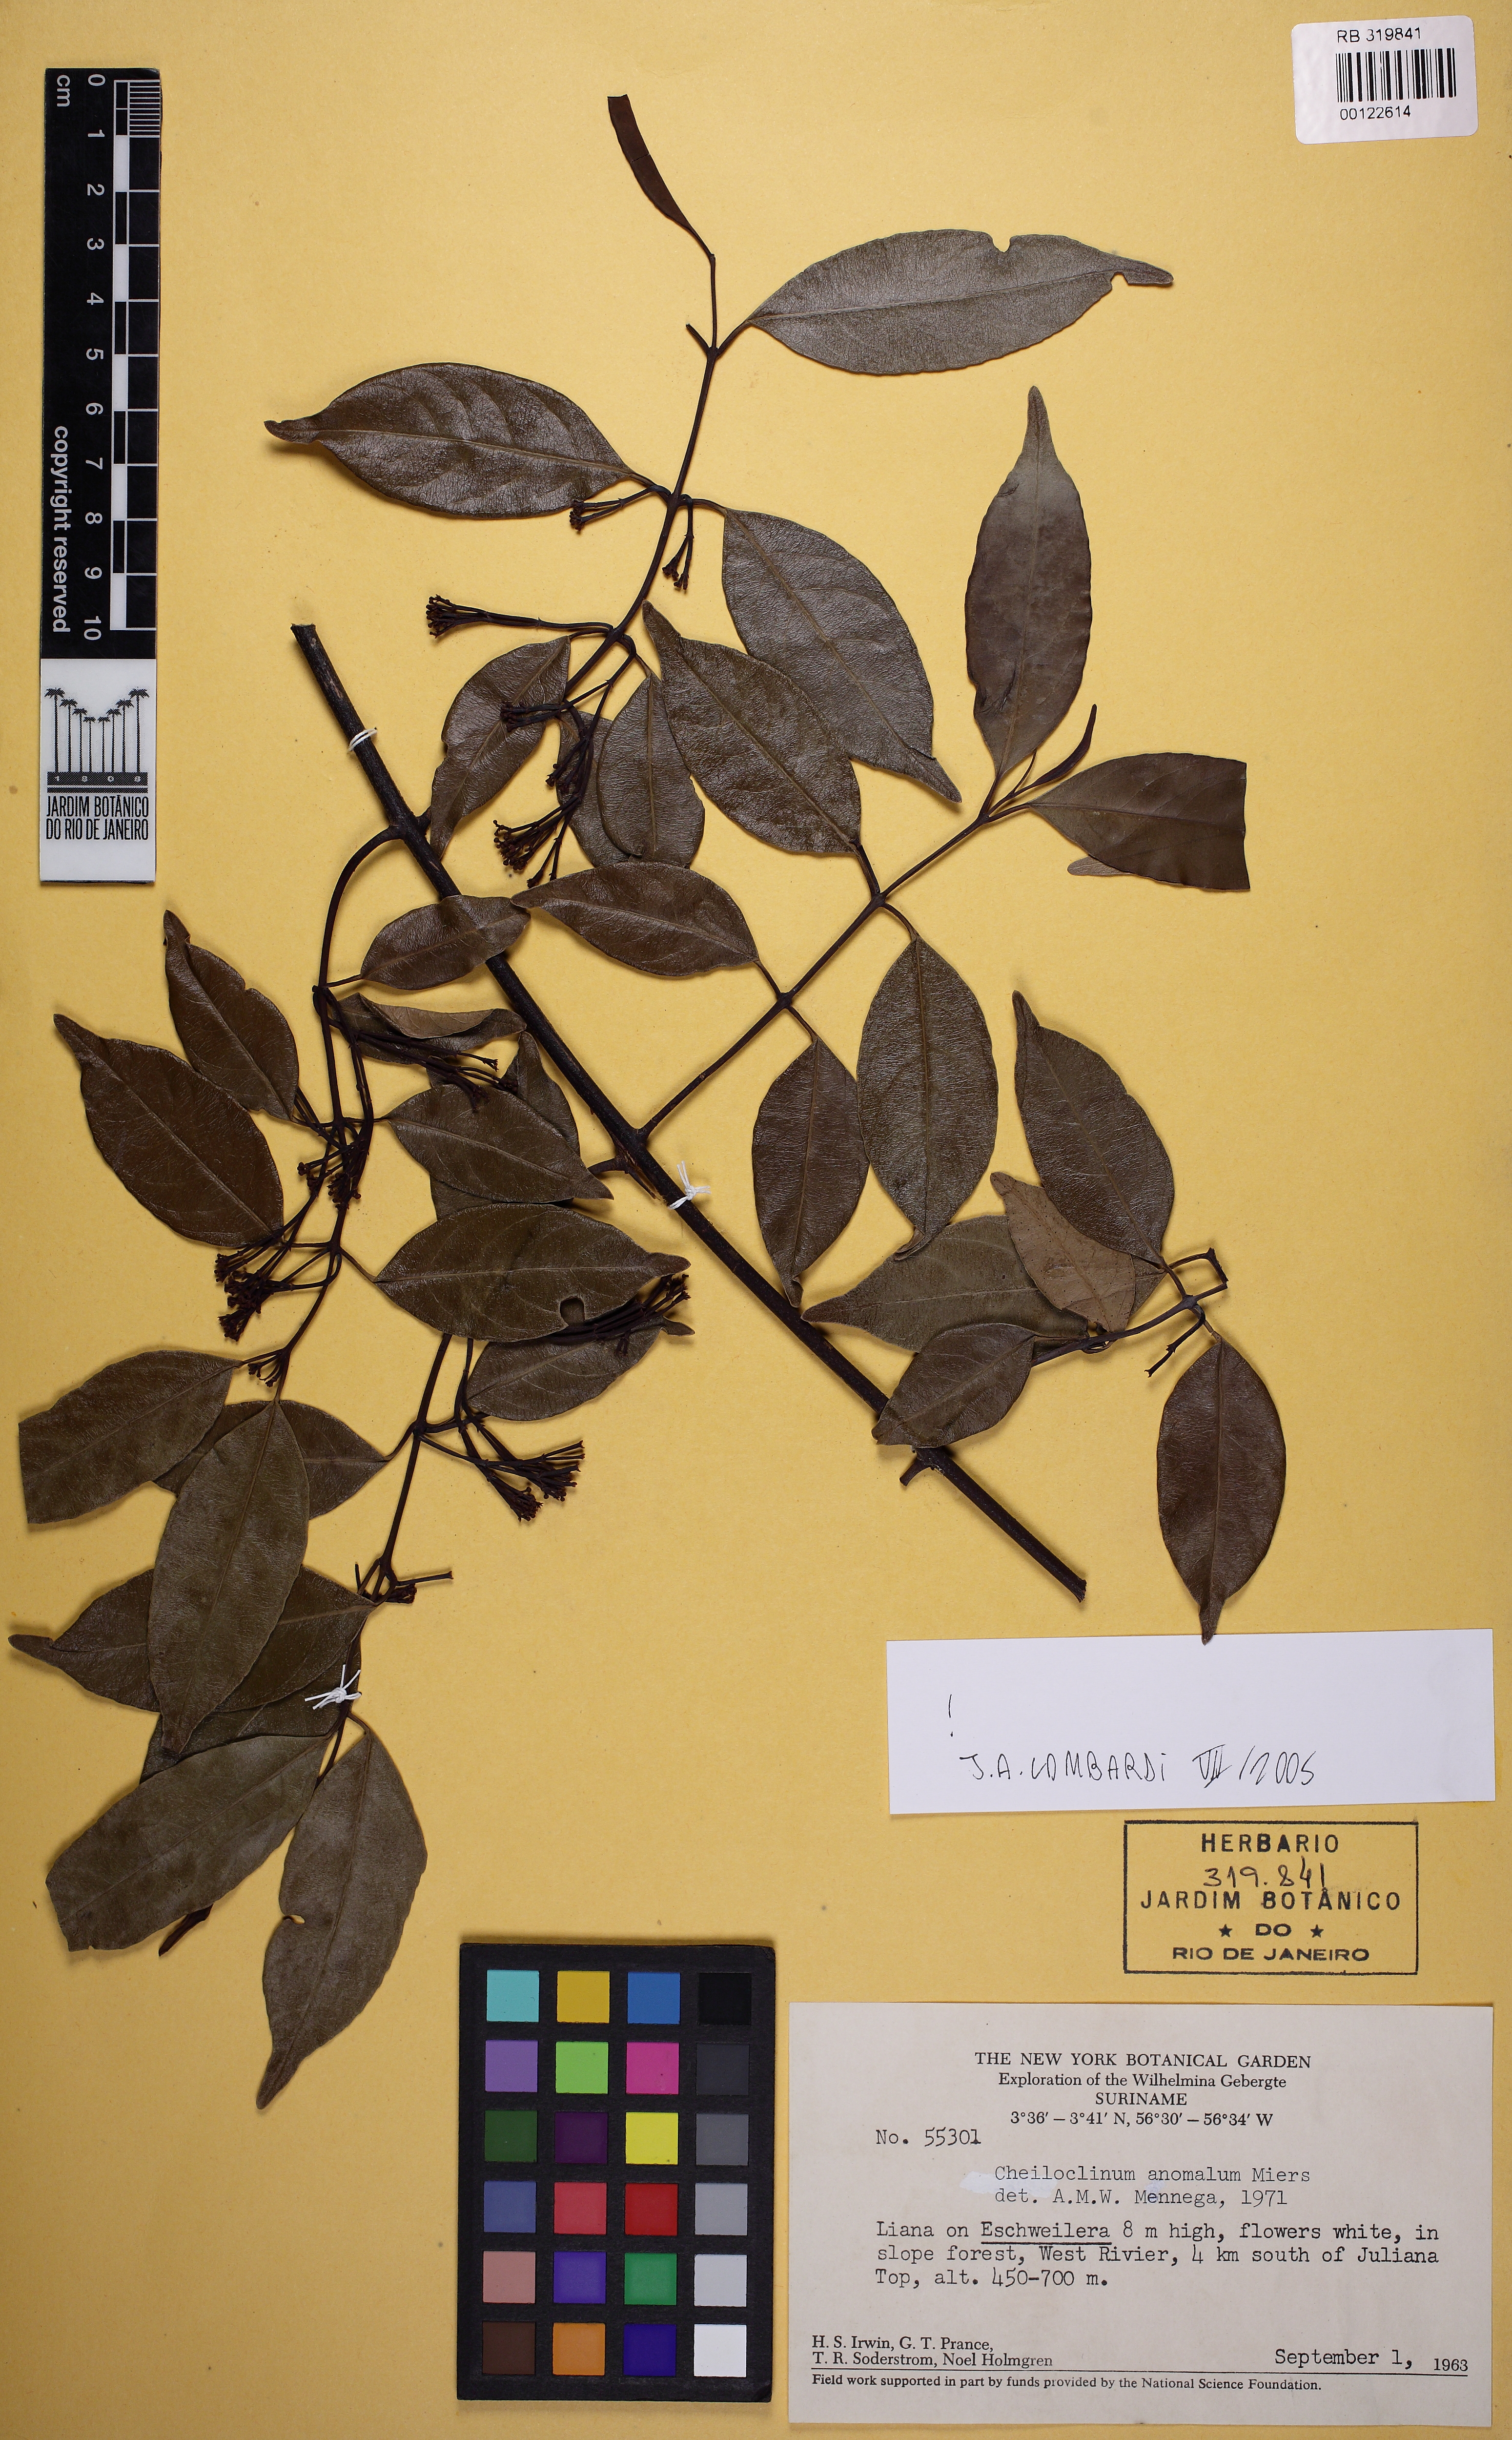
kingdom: Plantae
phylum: Tracheophyta
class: Magnoliopsida
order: Celastrales
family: Celastraceae
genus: Cheiloclinium
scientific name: Cheiloclinium anomalum
